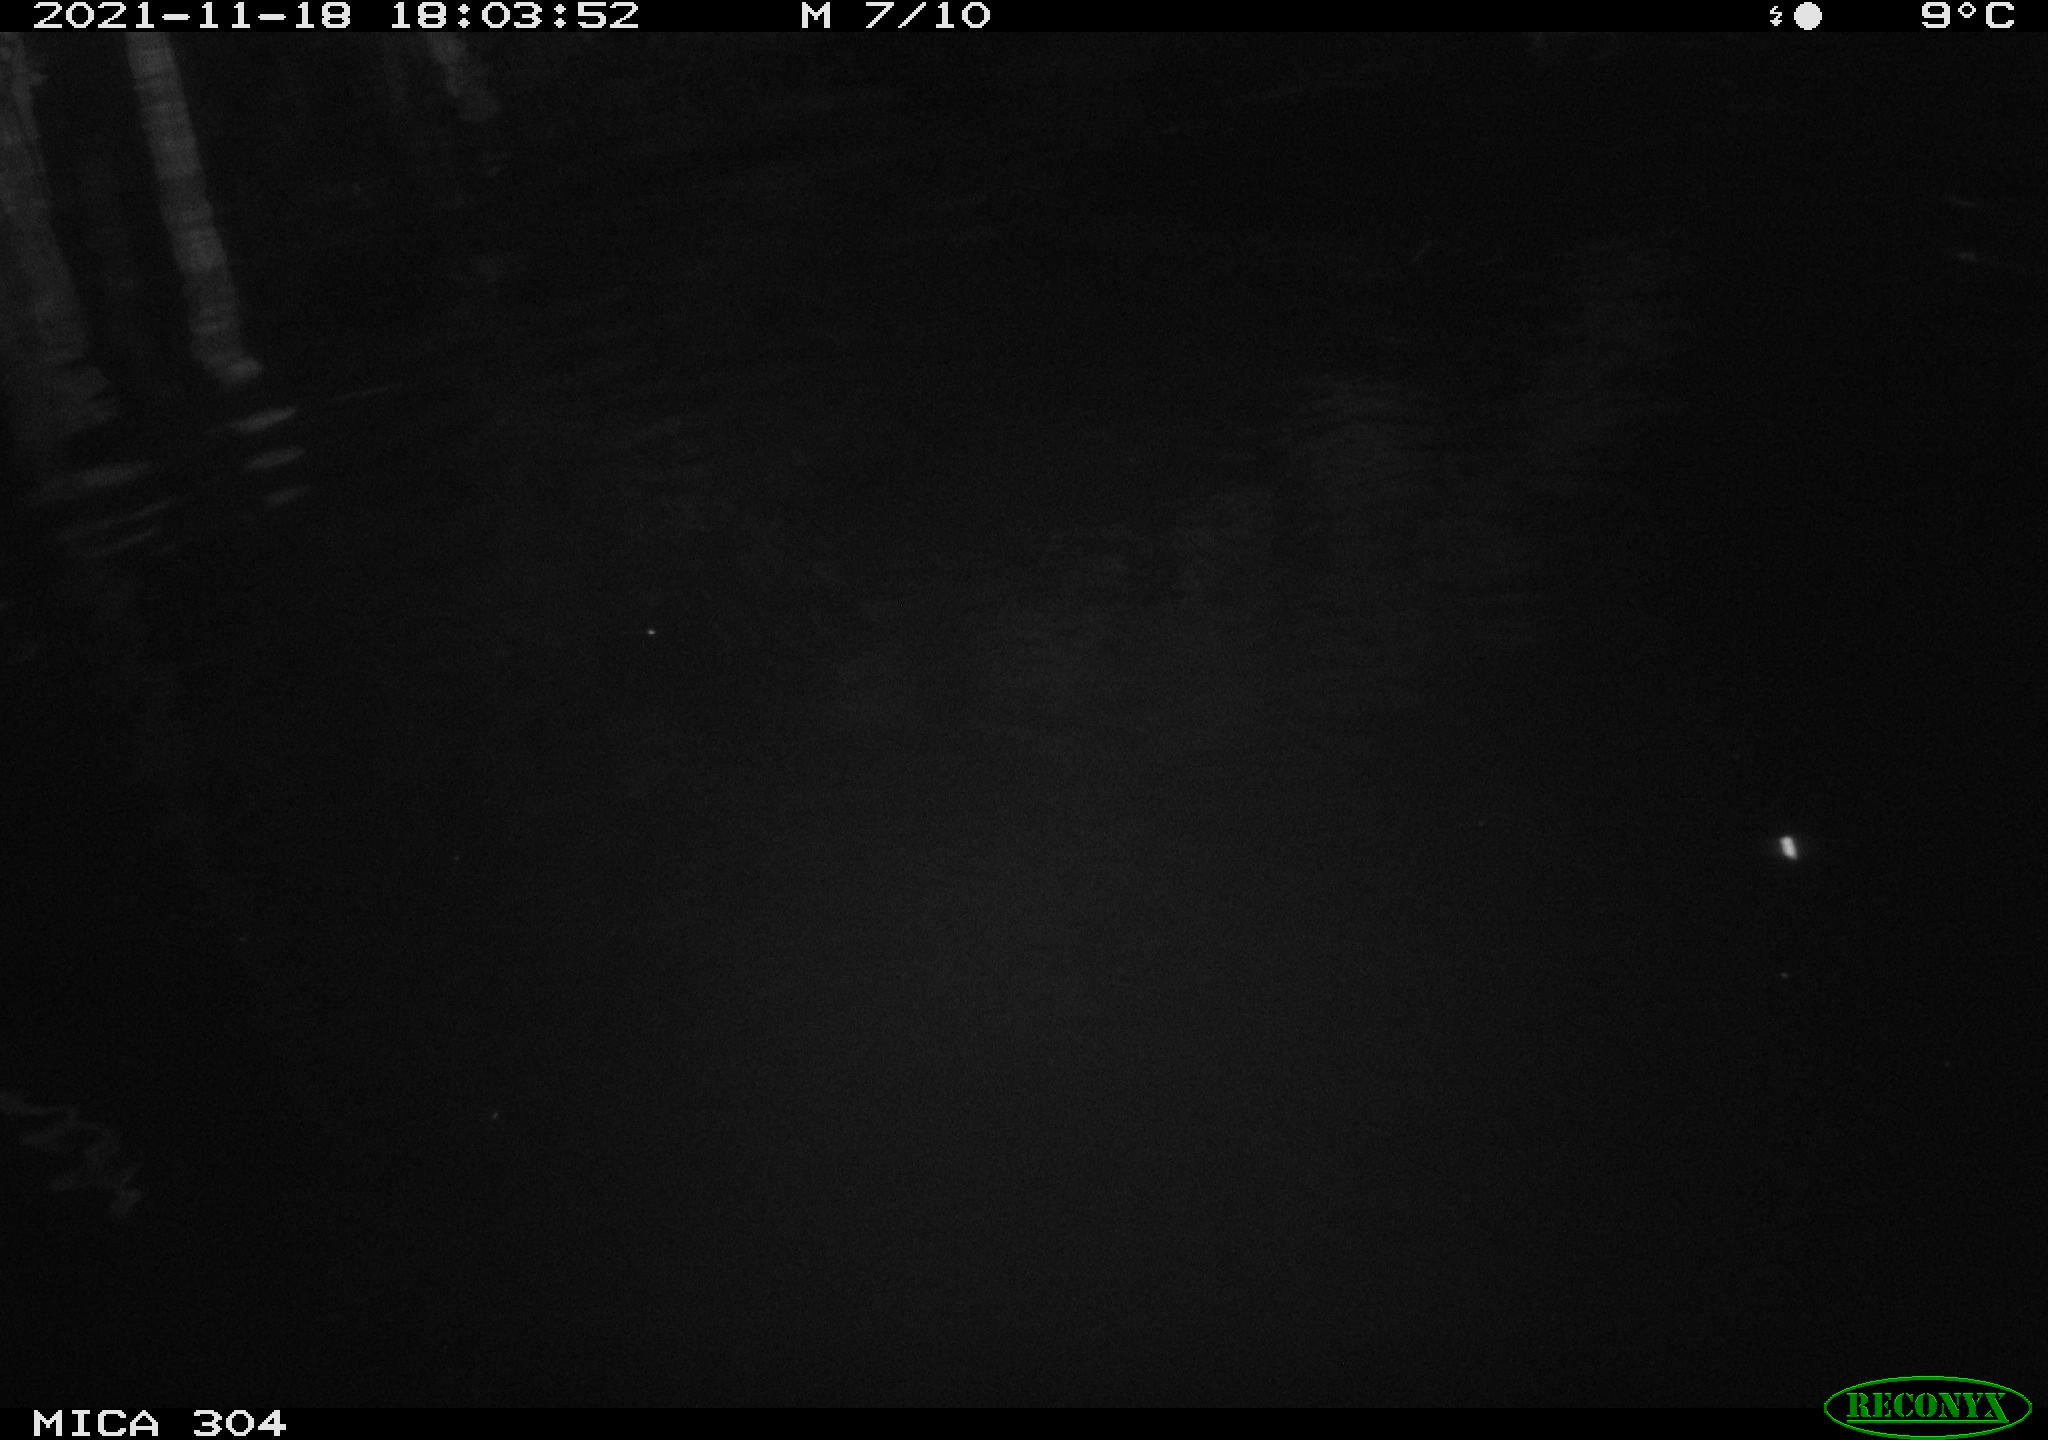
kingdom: Animalia
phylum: Chordata
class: Aves
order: Gruiformes
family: Rallidae
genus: Fulica
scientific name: Fulica atra
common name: Eurasian coot
